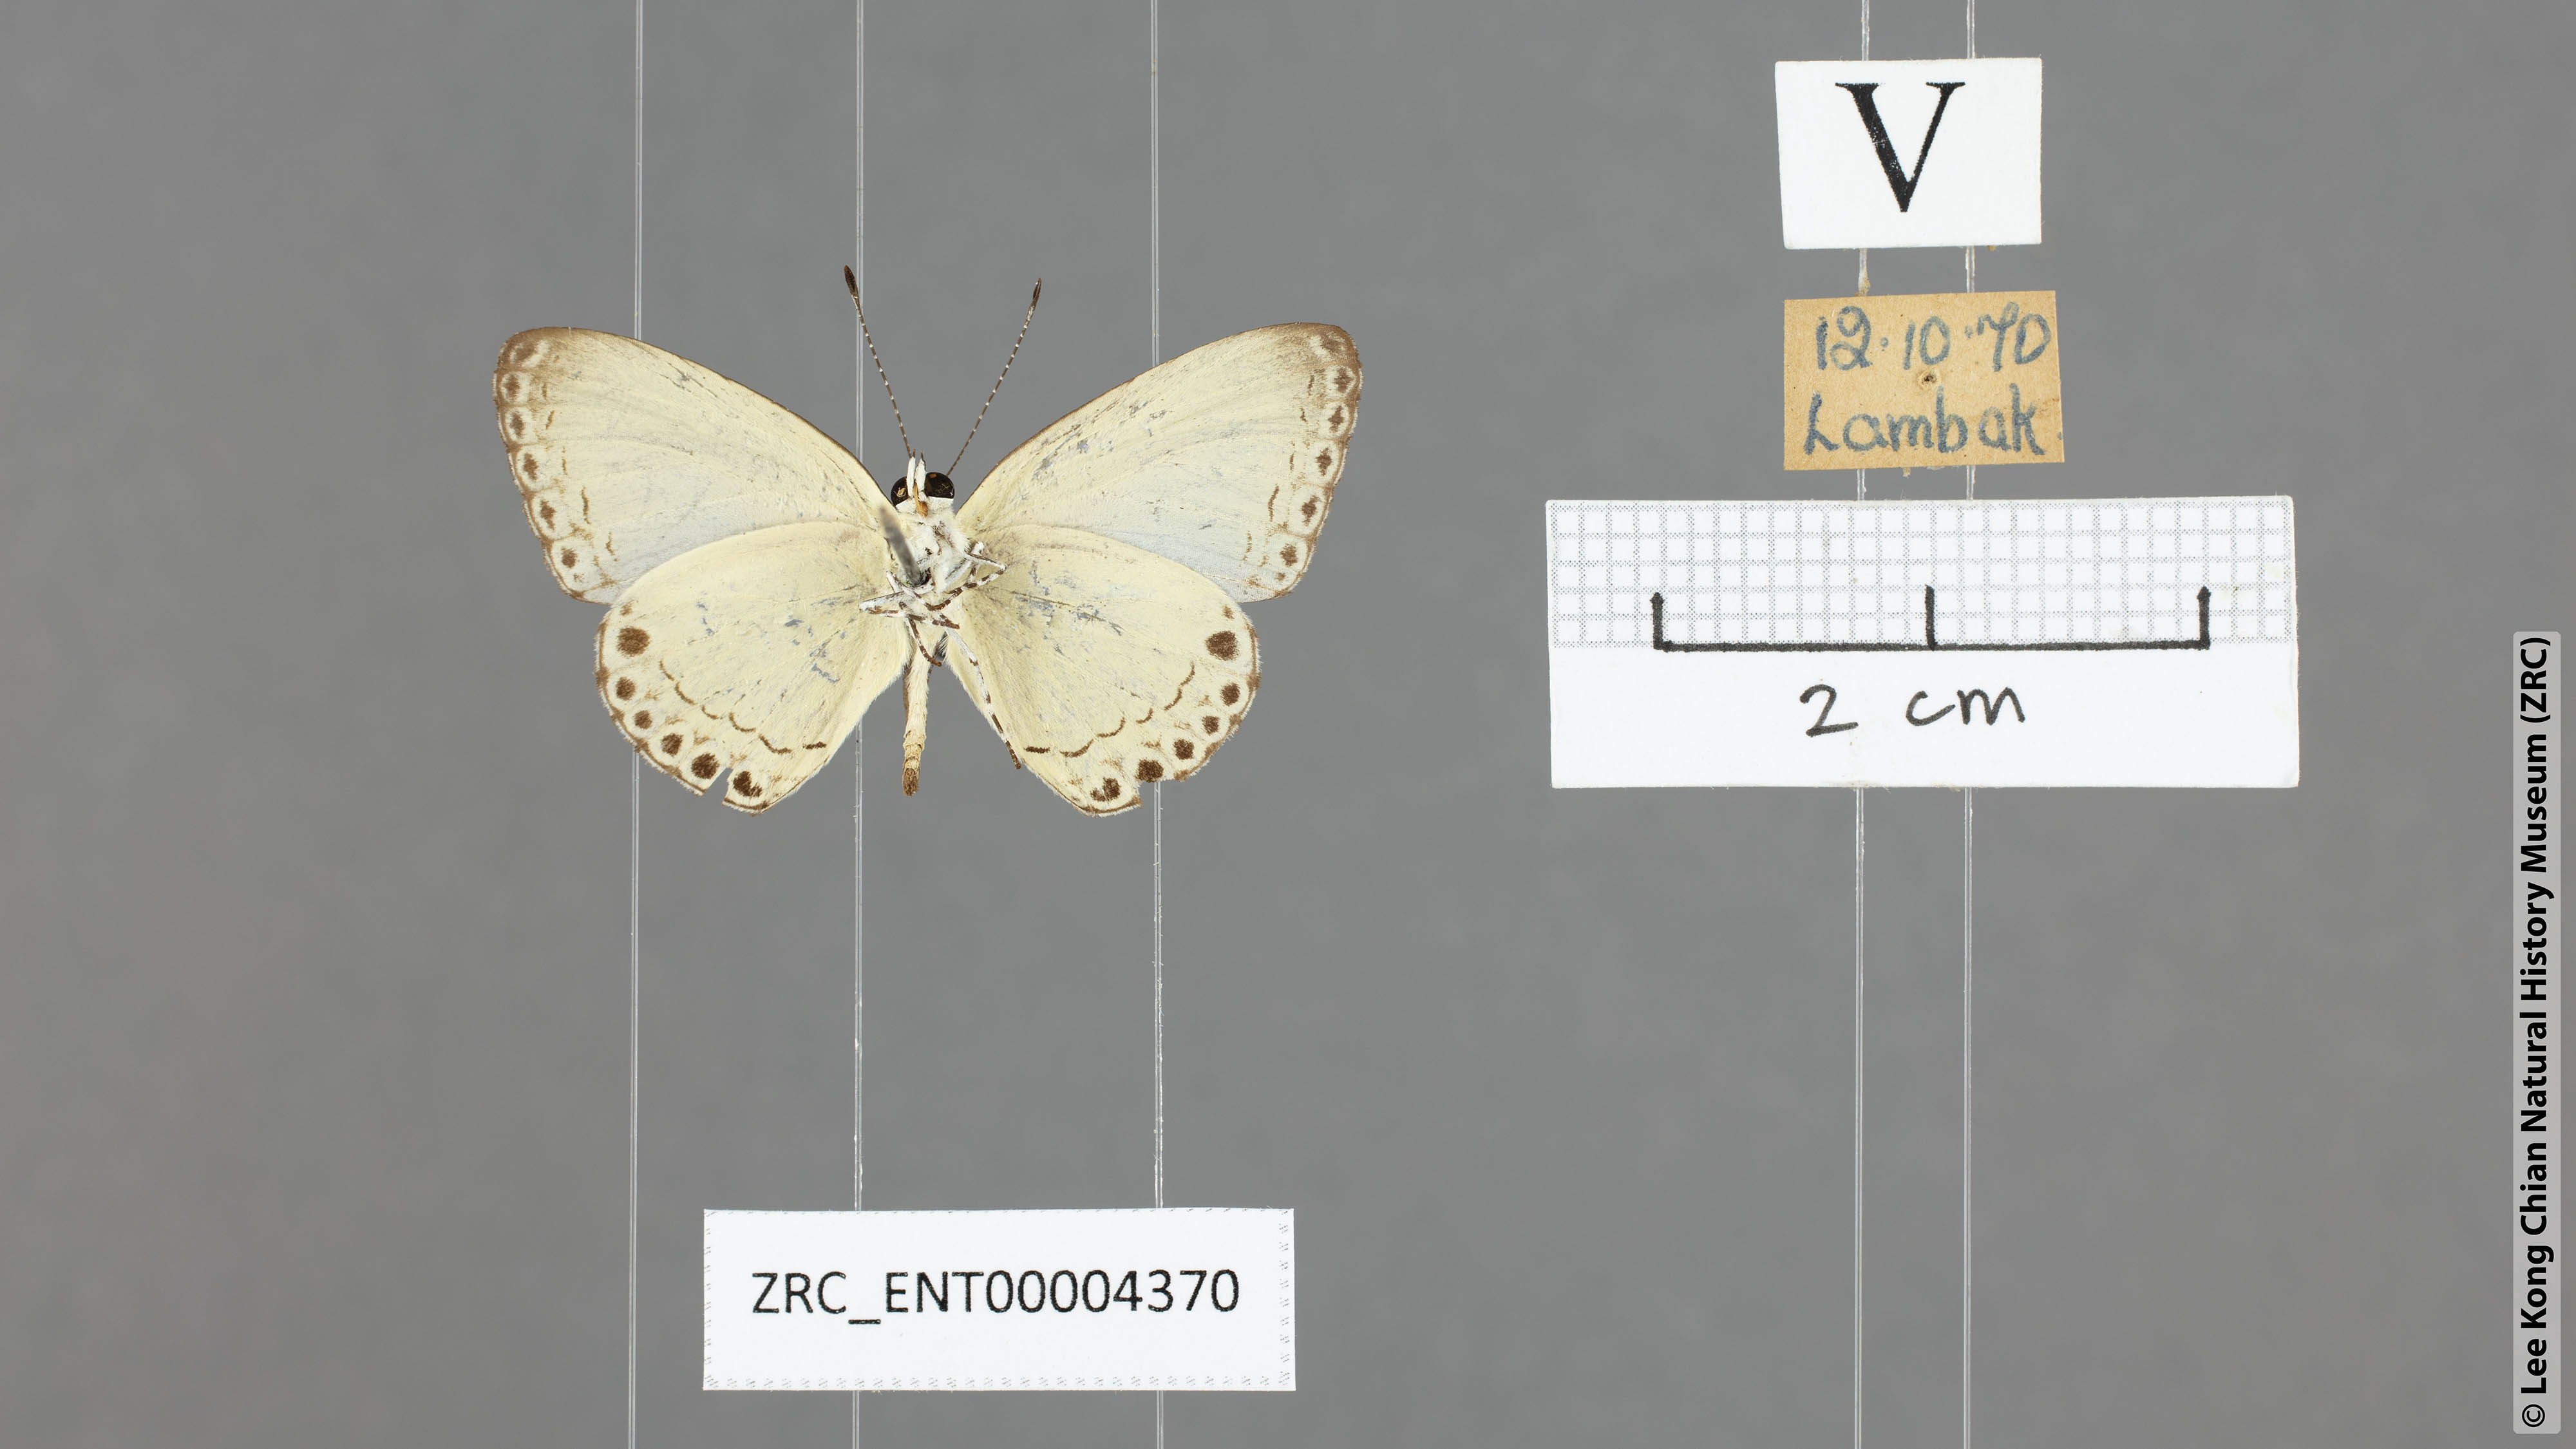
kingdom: Animalia
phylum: Arthropoda
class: Insecta
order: Lepidoptera
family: Lycaenidae
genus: Lycaenopsis
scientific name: Lycaenopsis haraldus
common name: Felder's hedge blue
